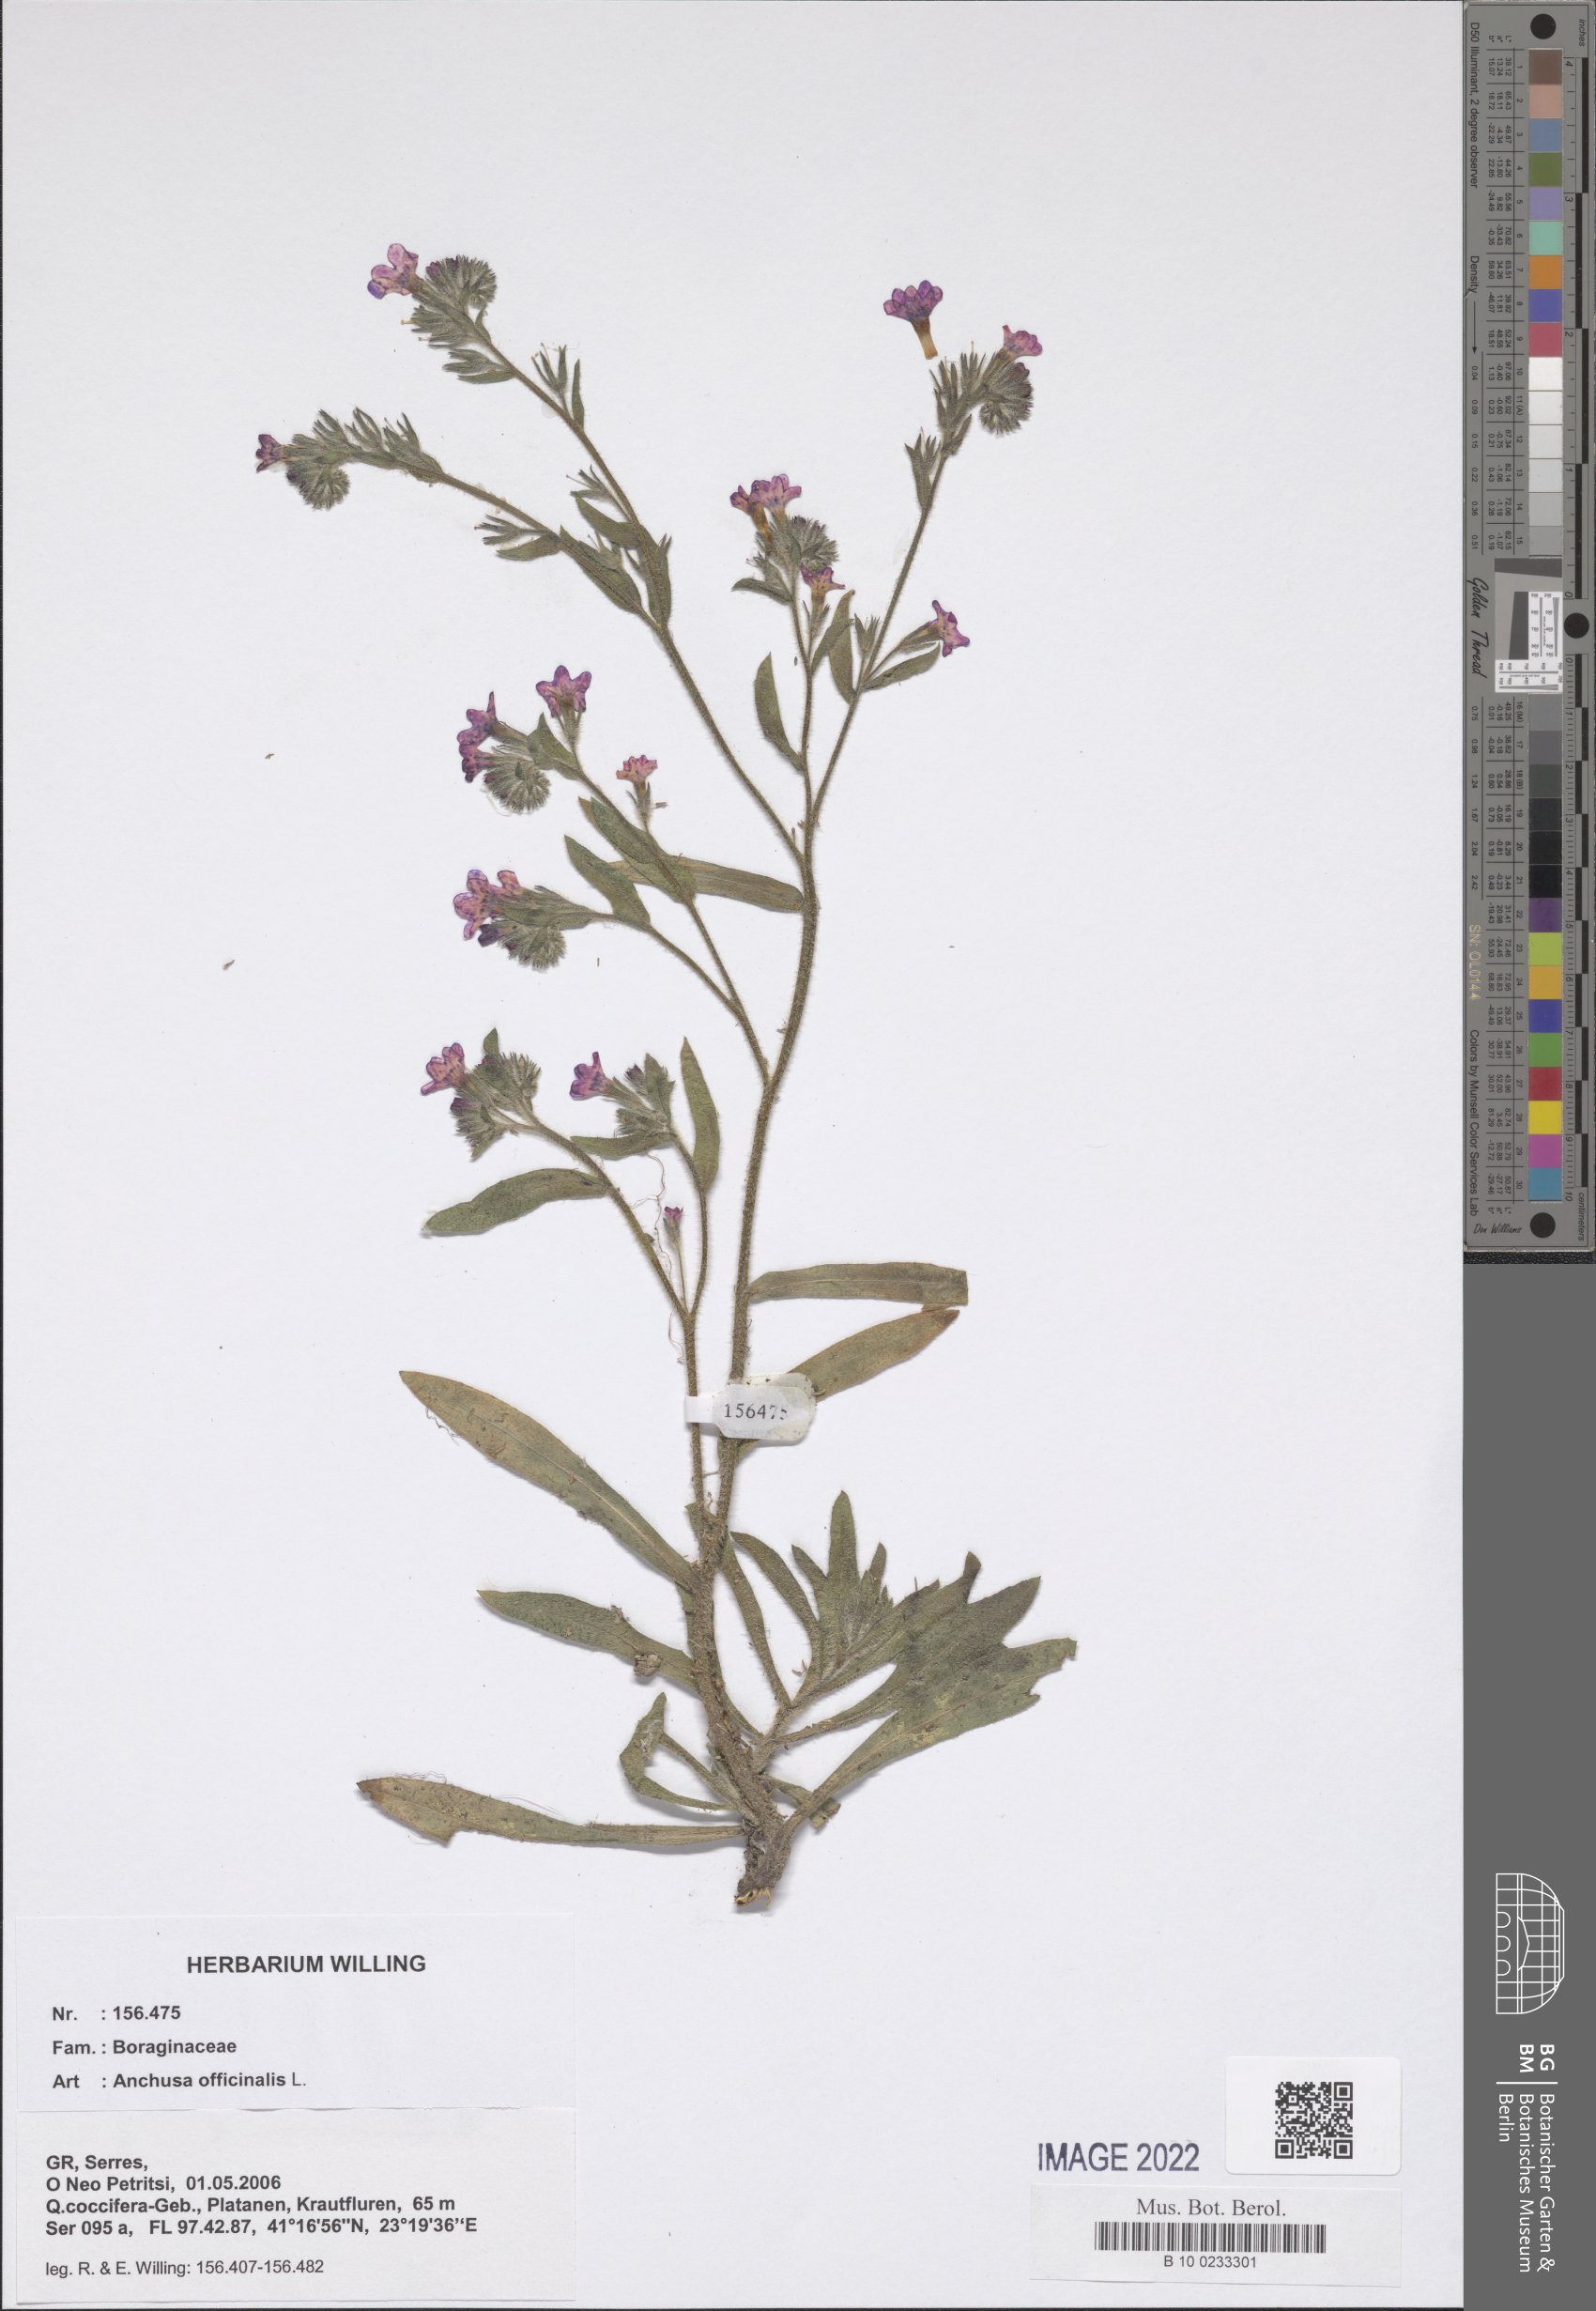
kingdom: Plantae
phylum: Tracheophyta
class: Magnoliopsida
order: Boraginales
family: Boraginaceae
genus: Anchusa
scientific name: Anchusa officinalis
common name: Alkanet
